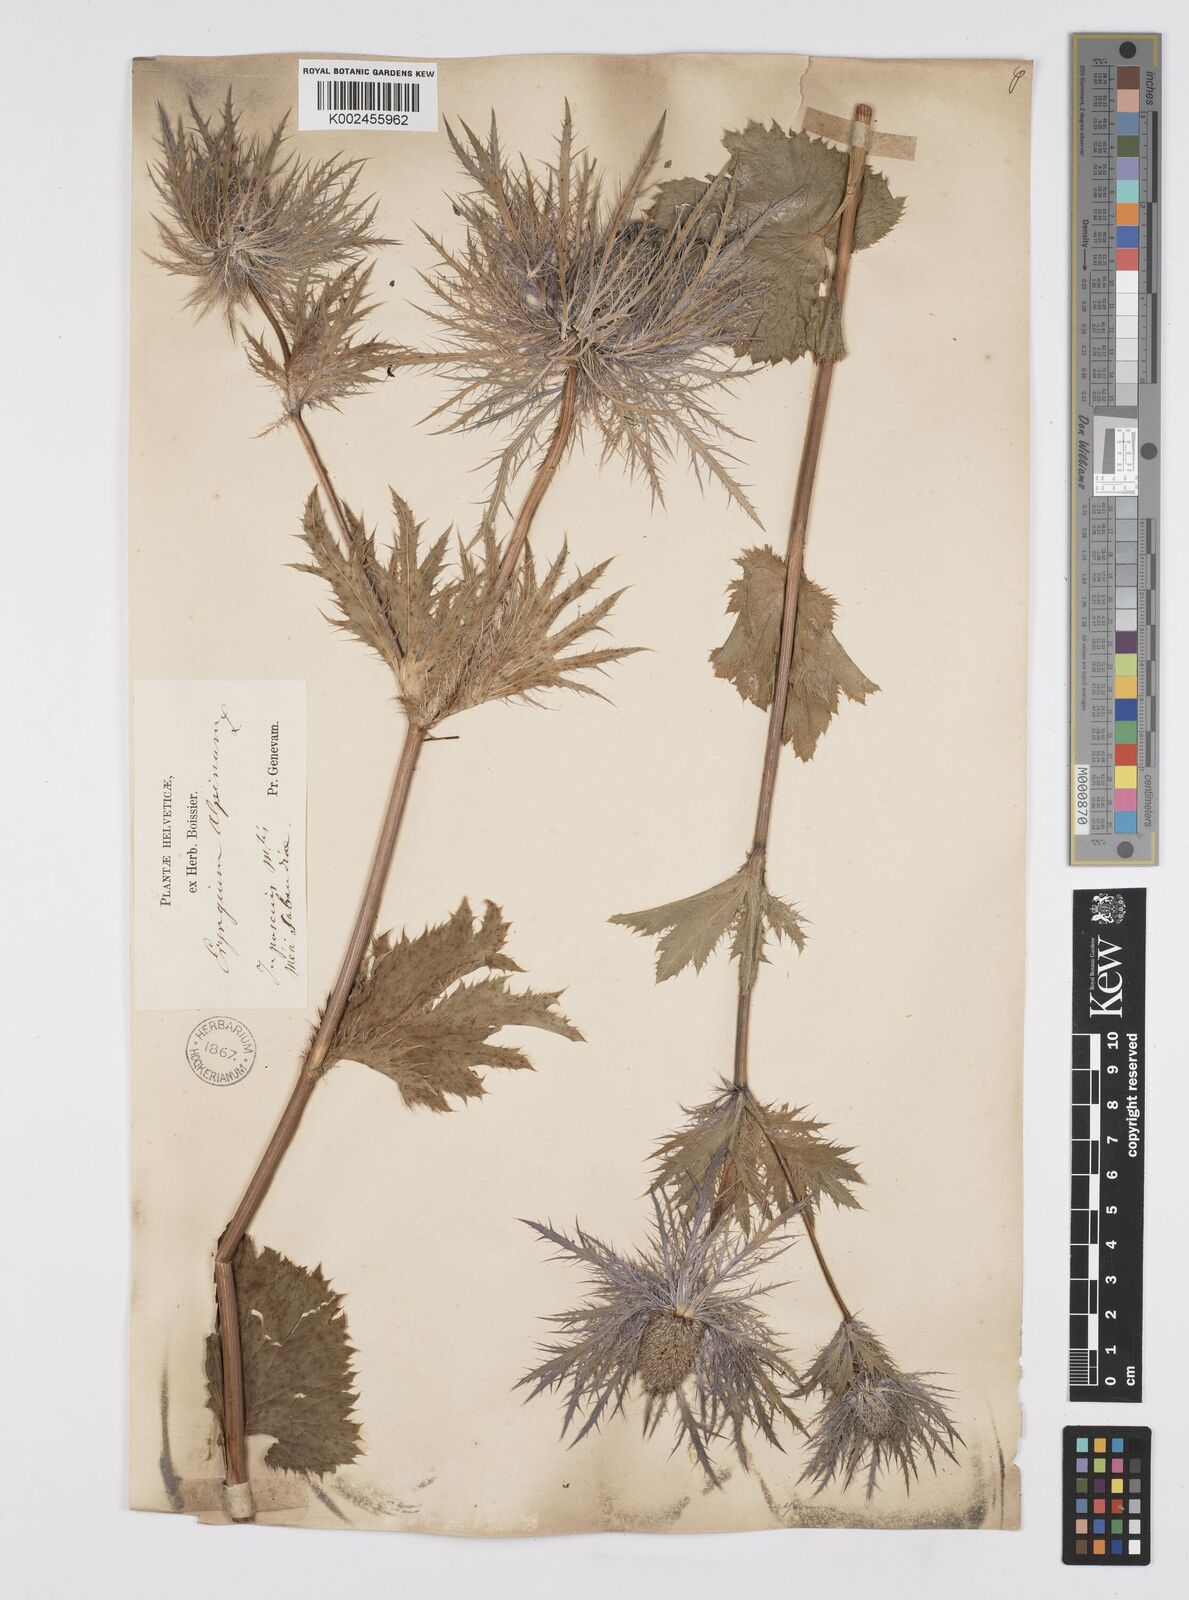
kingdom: Plantae
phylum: Tracheophyta
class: Magnoliopsida
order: Apiales
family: Apiaceae
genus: Eryngium
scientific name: Eryngium alpinum
